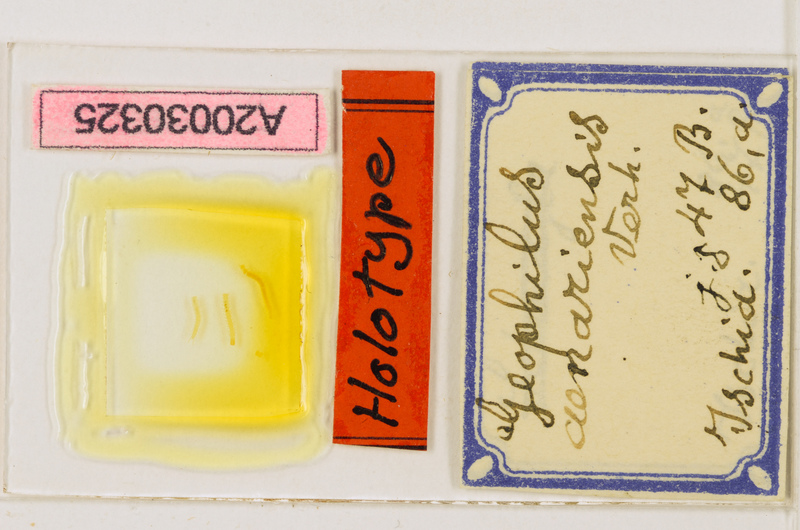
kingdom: Animalia
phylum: Arthropoda
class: Chilopoda
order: Geophilomorpha
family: Geophilidae
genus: Geophilus
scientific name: Geophilus aenariensis
